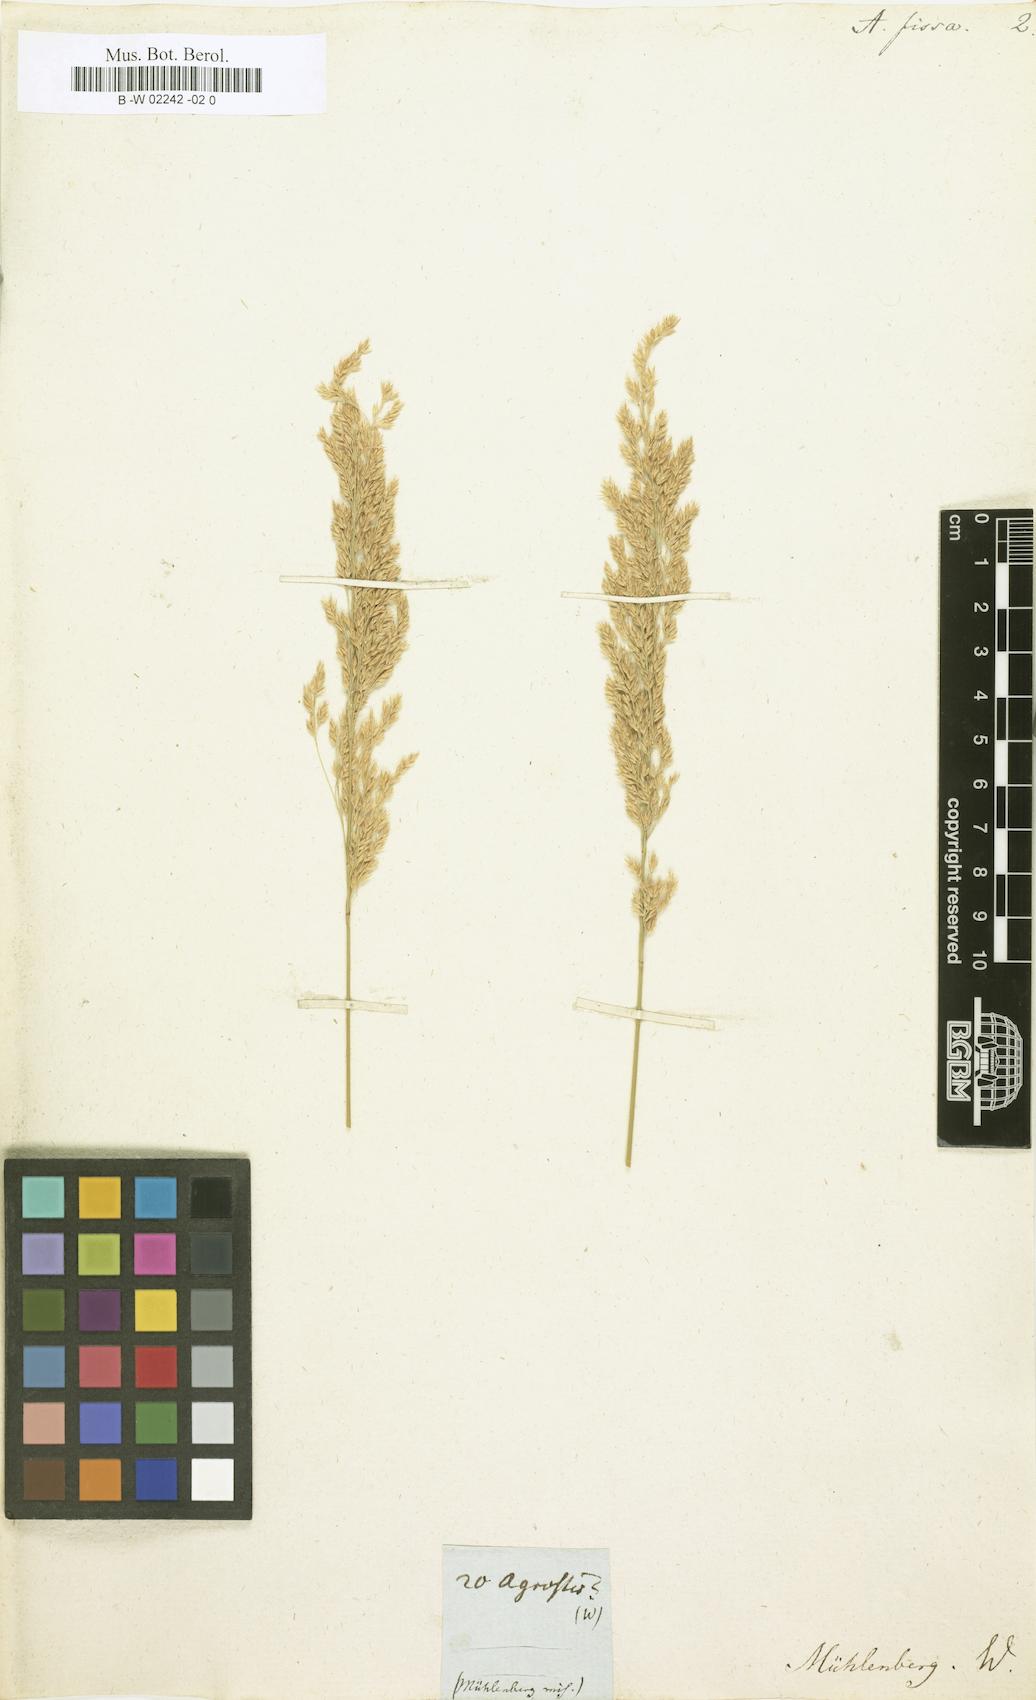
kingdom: Plantae
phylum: Tracheophyta
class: Liliopsida
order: Poales
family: Poaceae
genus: Calamagrostis
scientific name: Calamagrostis canadensis
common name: Canada bluejoint
